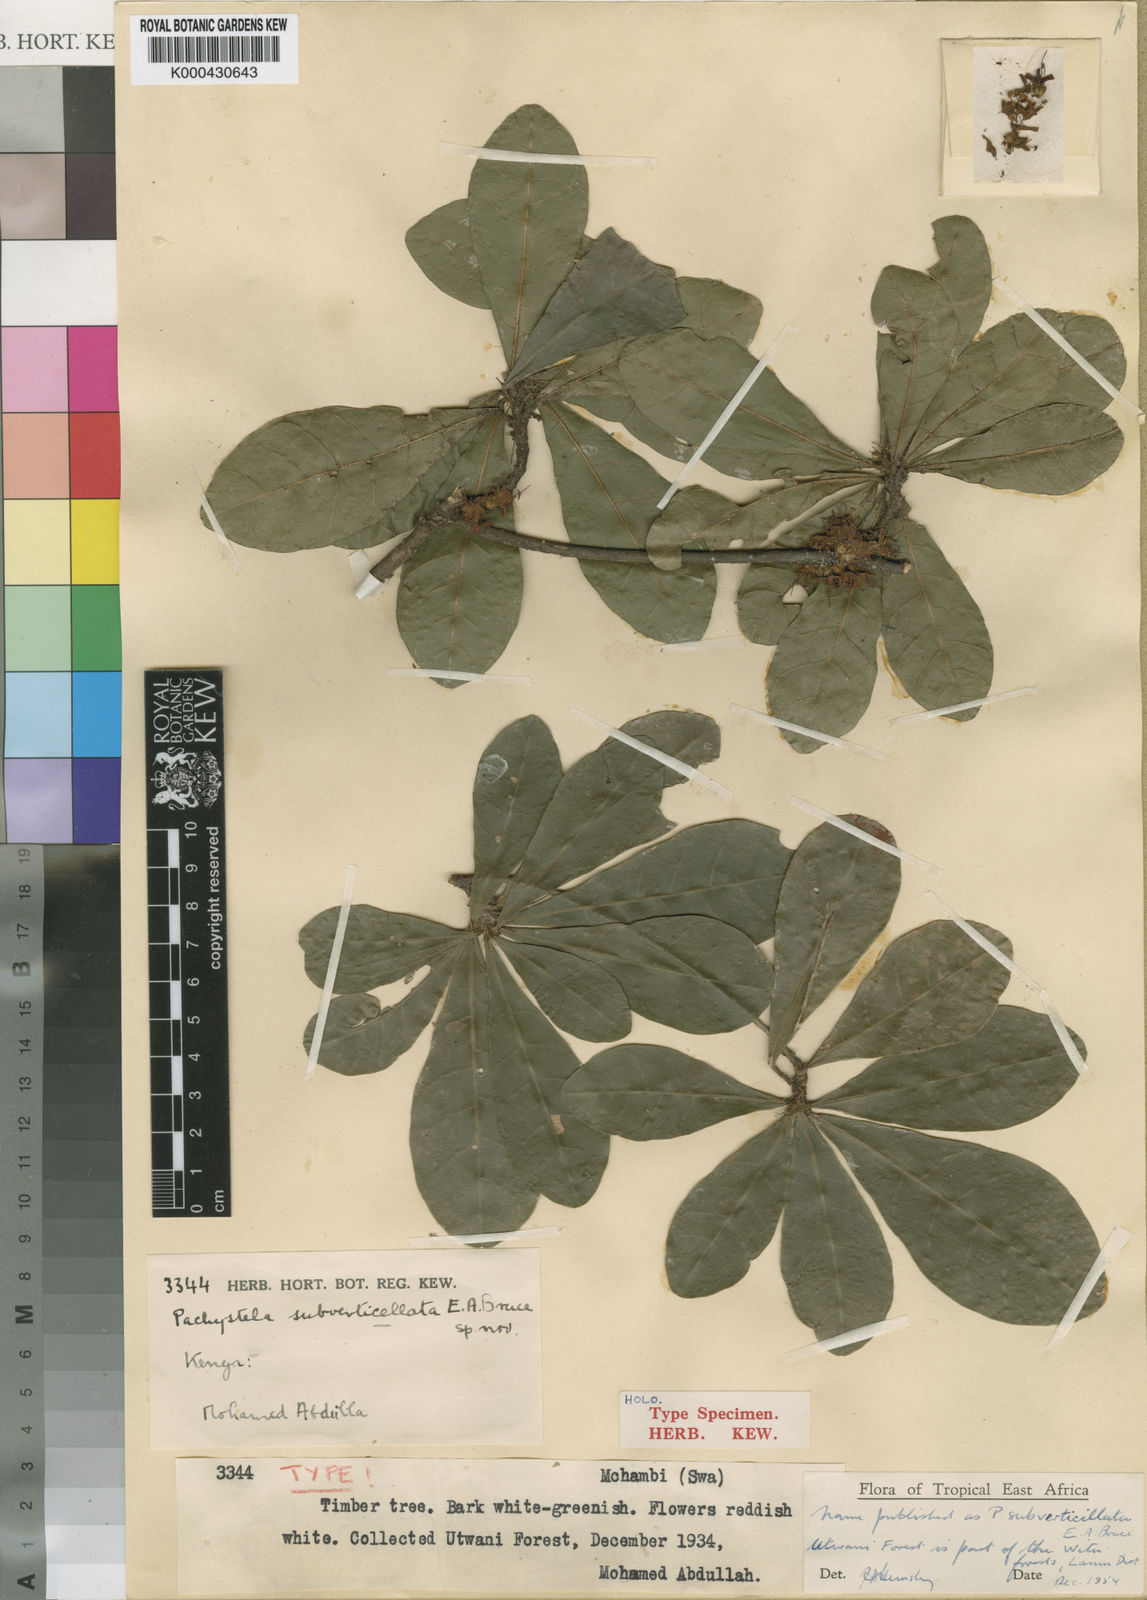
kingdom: Plantae
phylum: Tracheophyta
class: Magnoliopsida
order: Ericales
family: Sapotaceae
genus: Synsepalum
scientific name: Synsepalum subverticillatum
